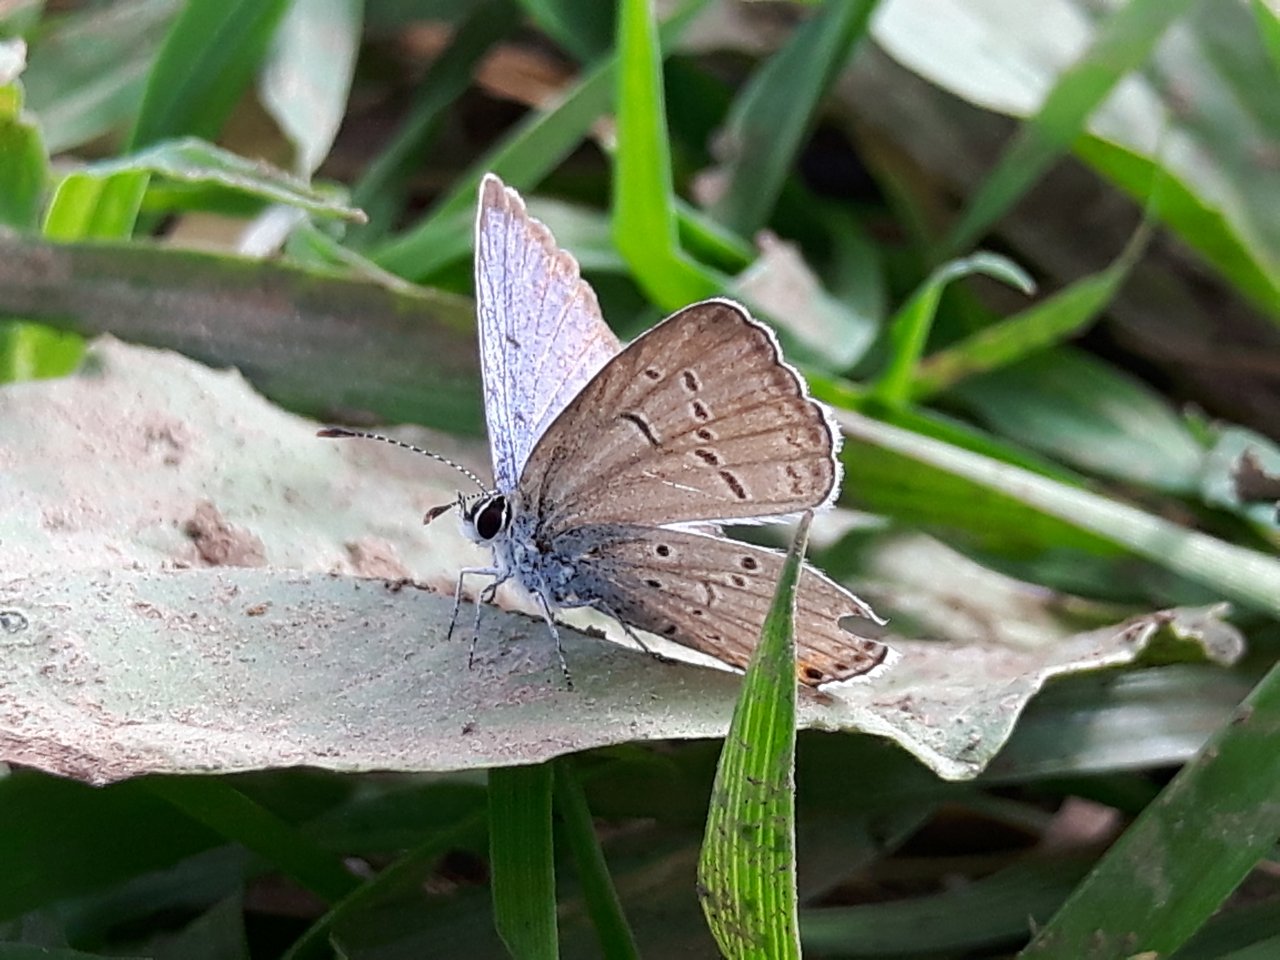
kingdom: Animalia
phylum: Arthropoda
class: Insecta
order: Lepidoptera
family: Lycaenidae
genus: Elkalyce
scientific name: Elkalyce comyntas
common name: Eastern Tailed-Blue
